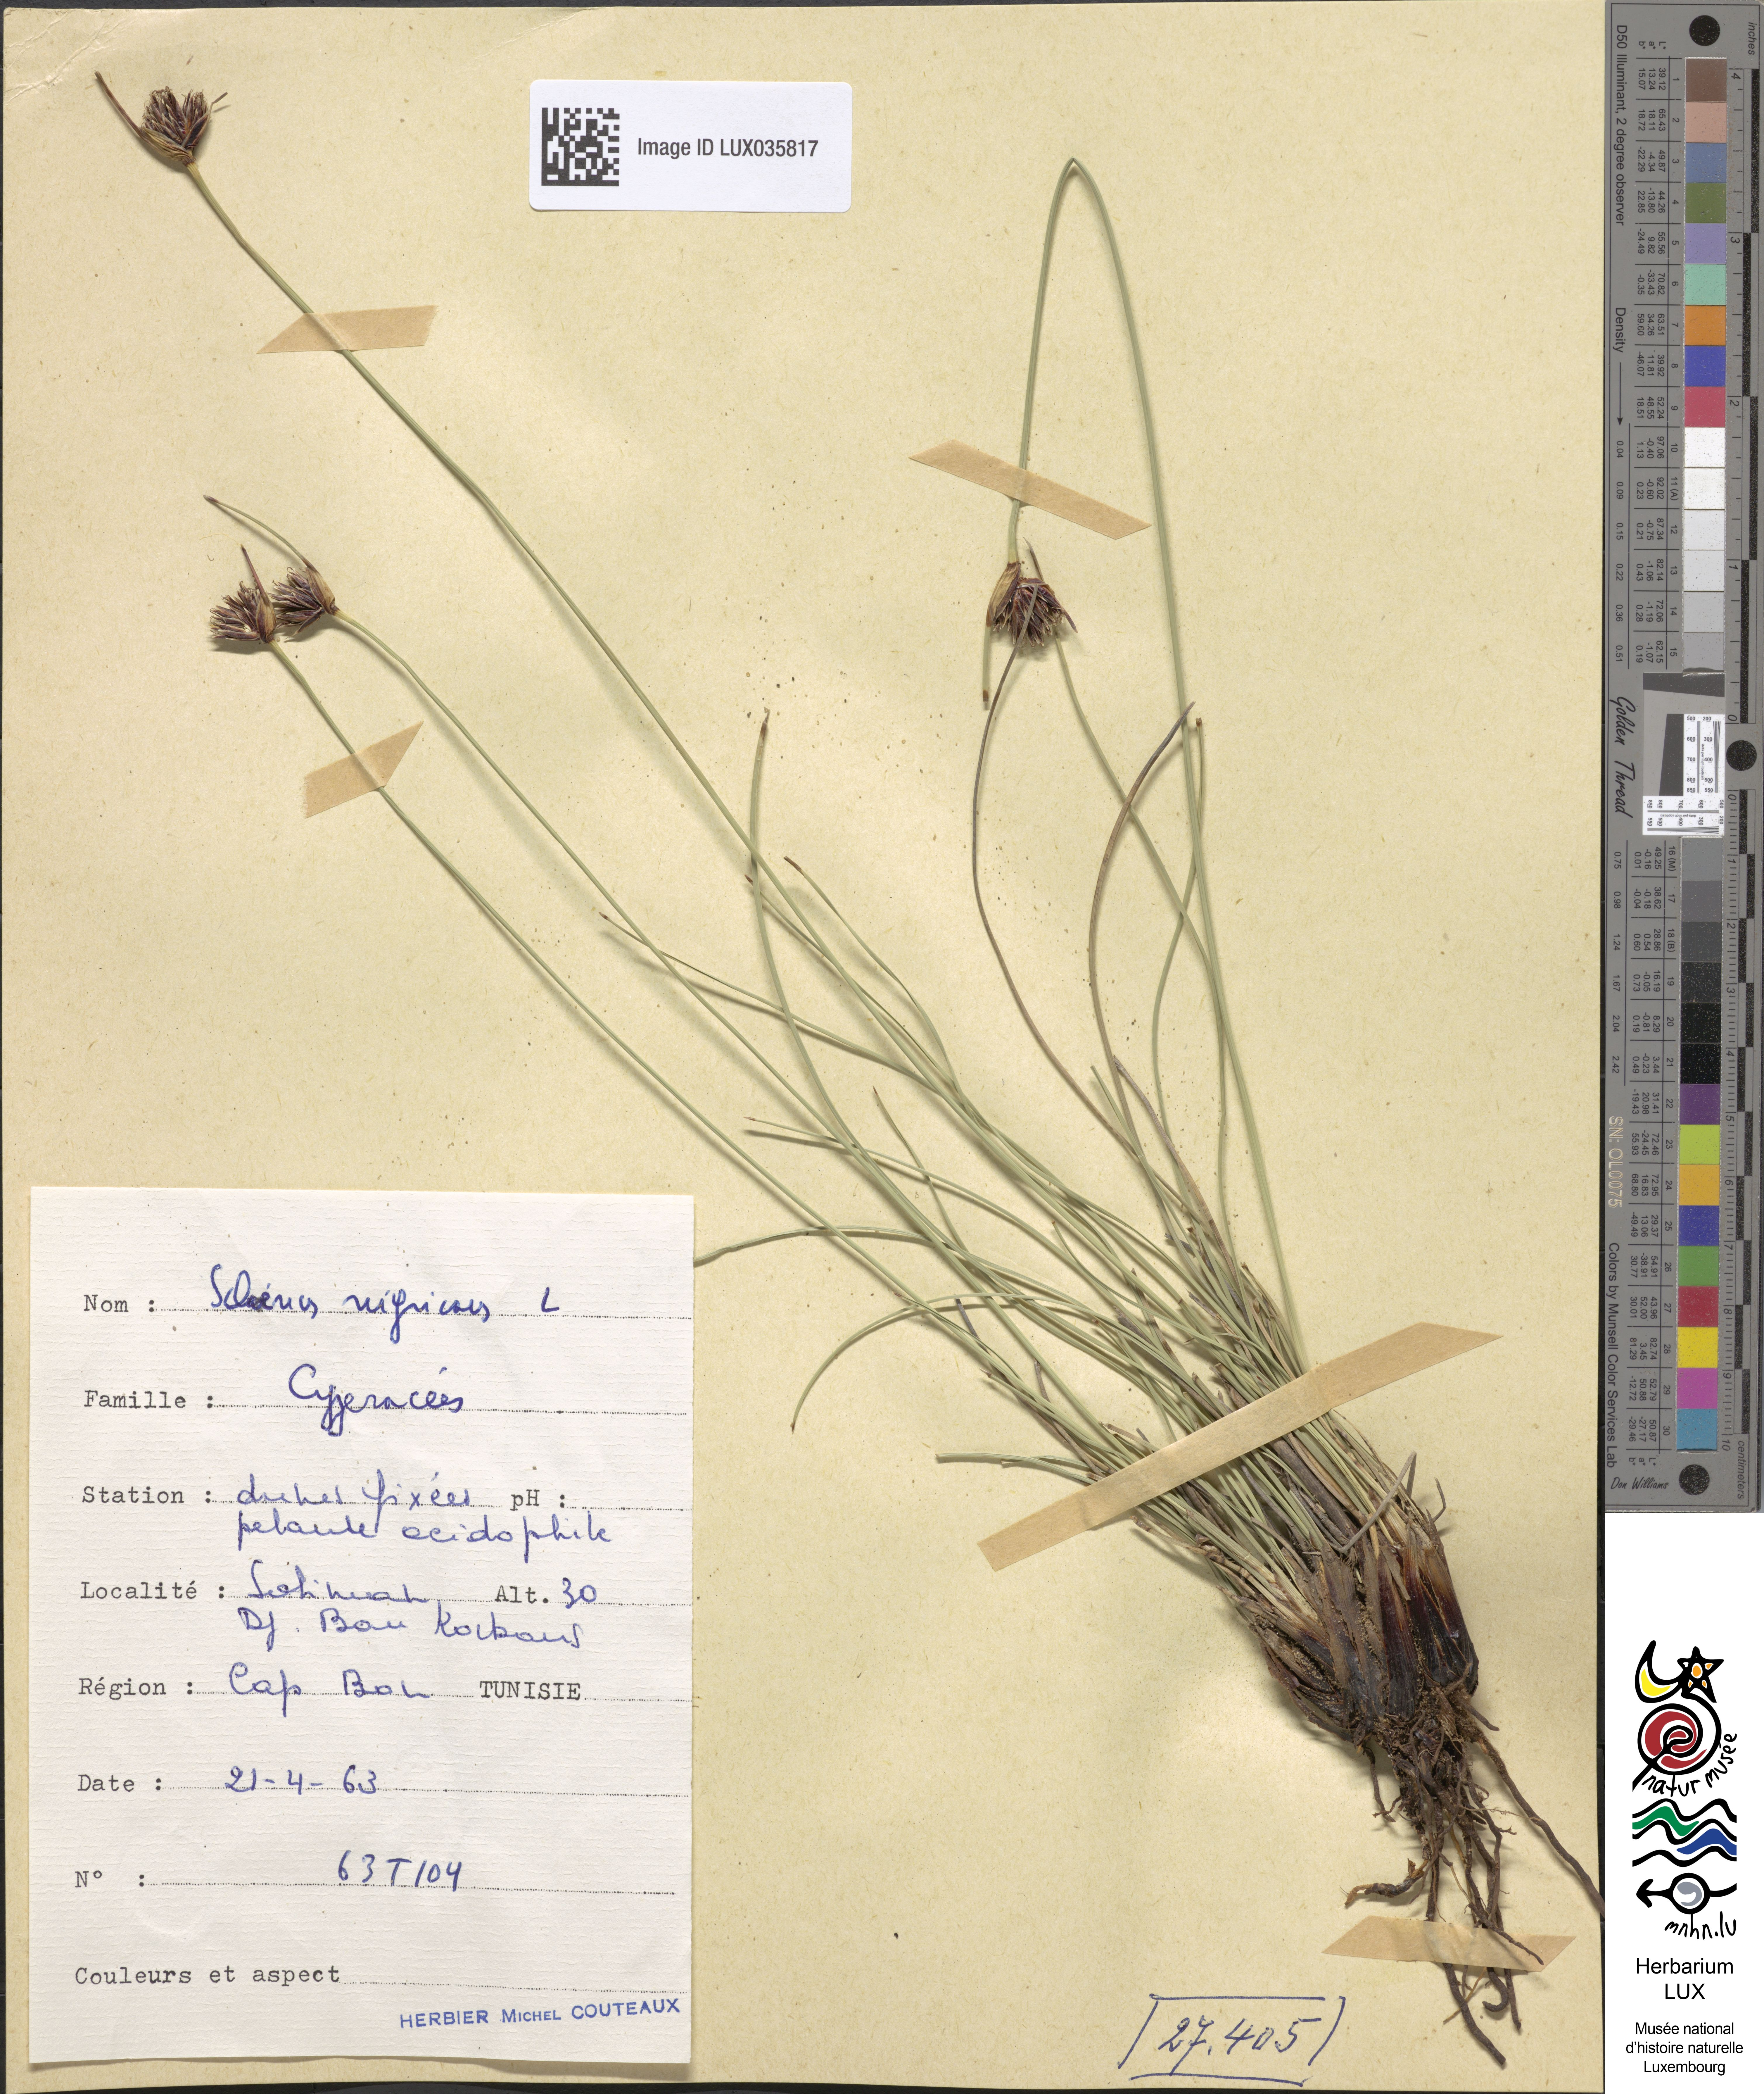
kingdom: Plantae
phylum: Tracheophyta
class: Liliopsida
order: Poales
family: Cyperaceae
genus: Schoenus
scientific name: Schoenus nigricans
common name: Black bog-rush
